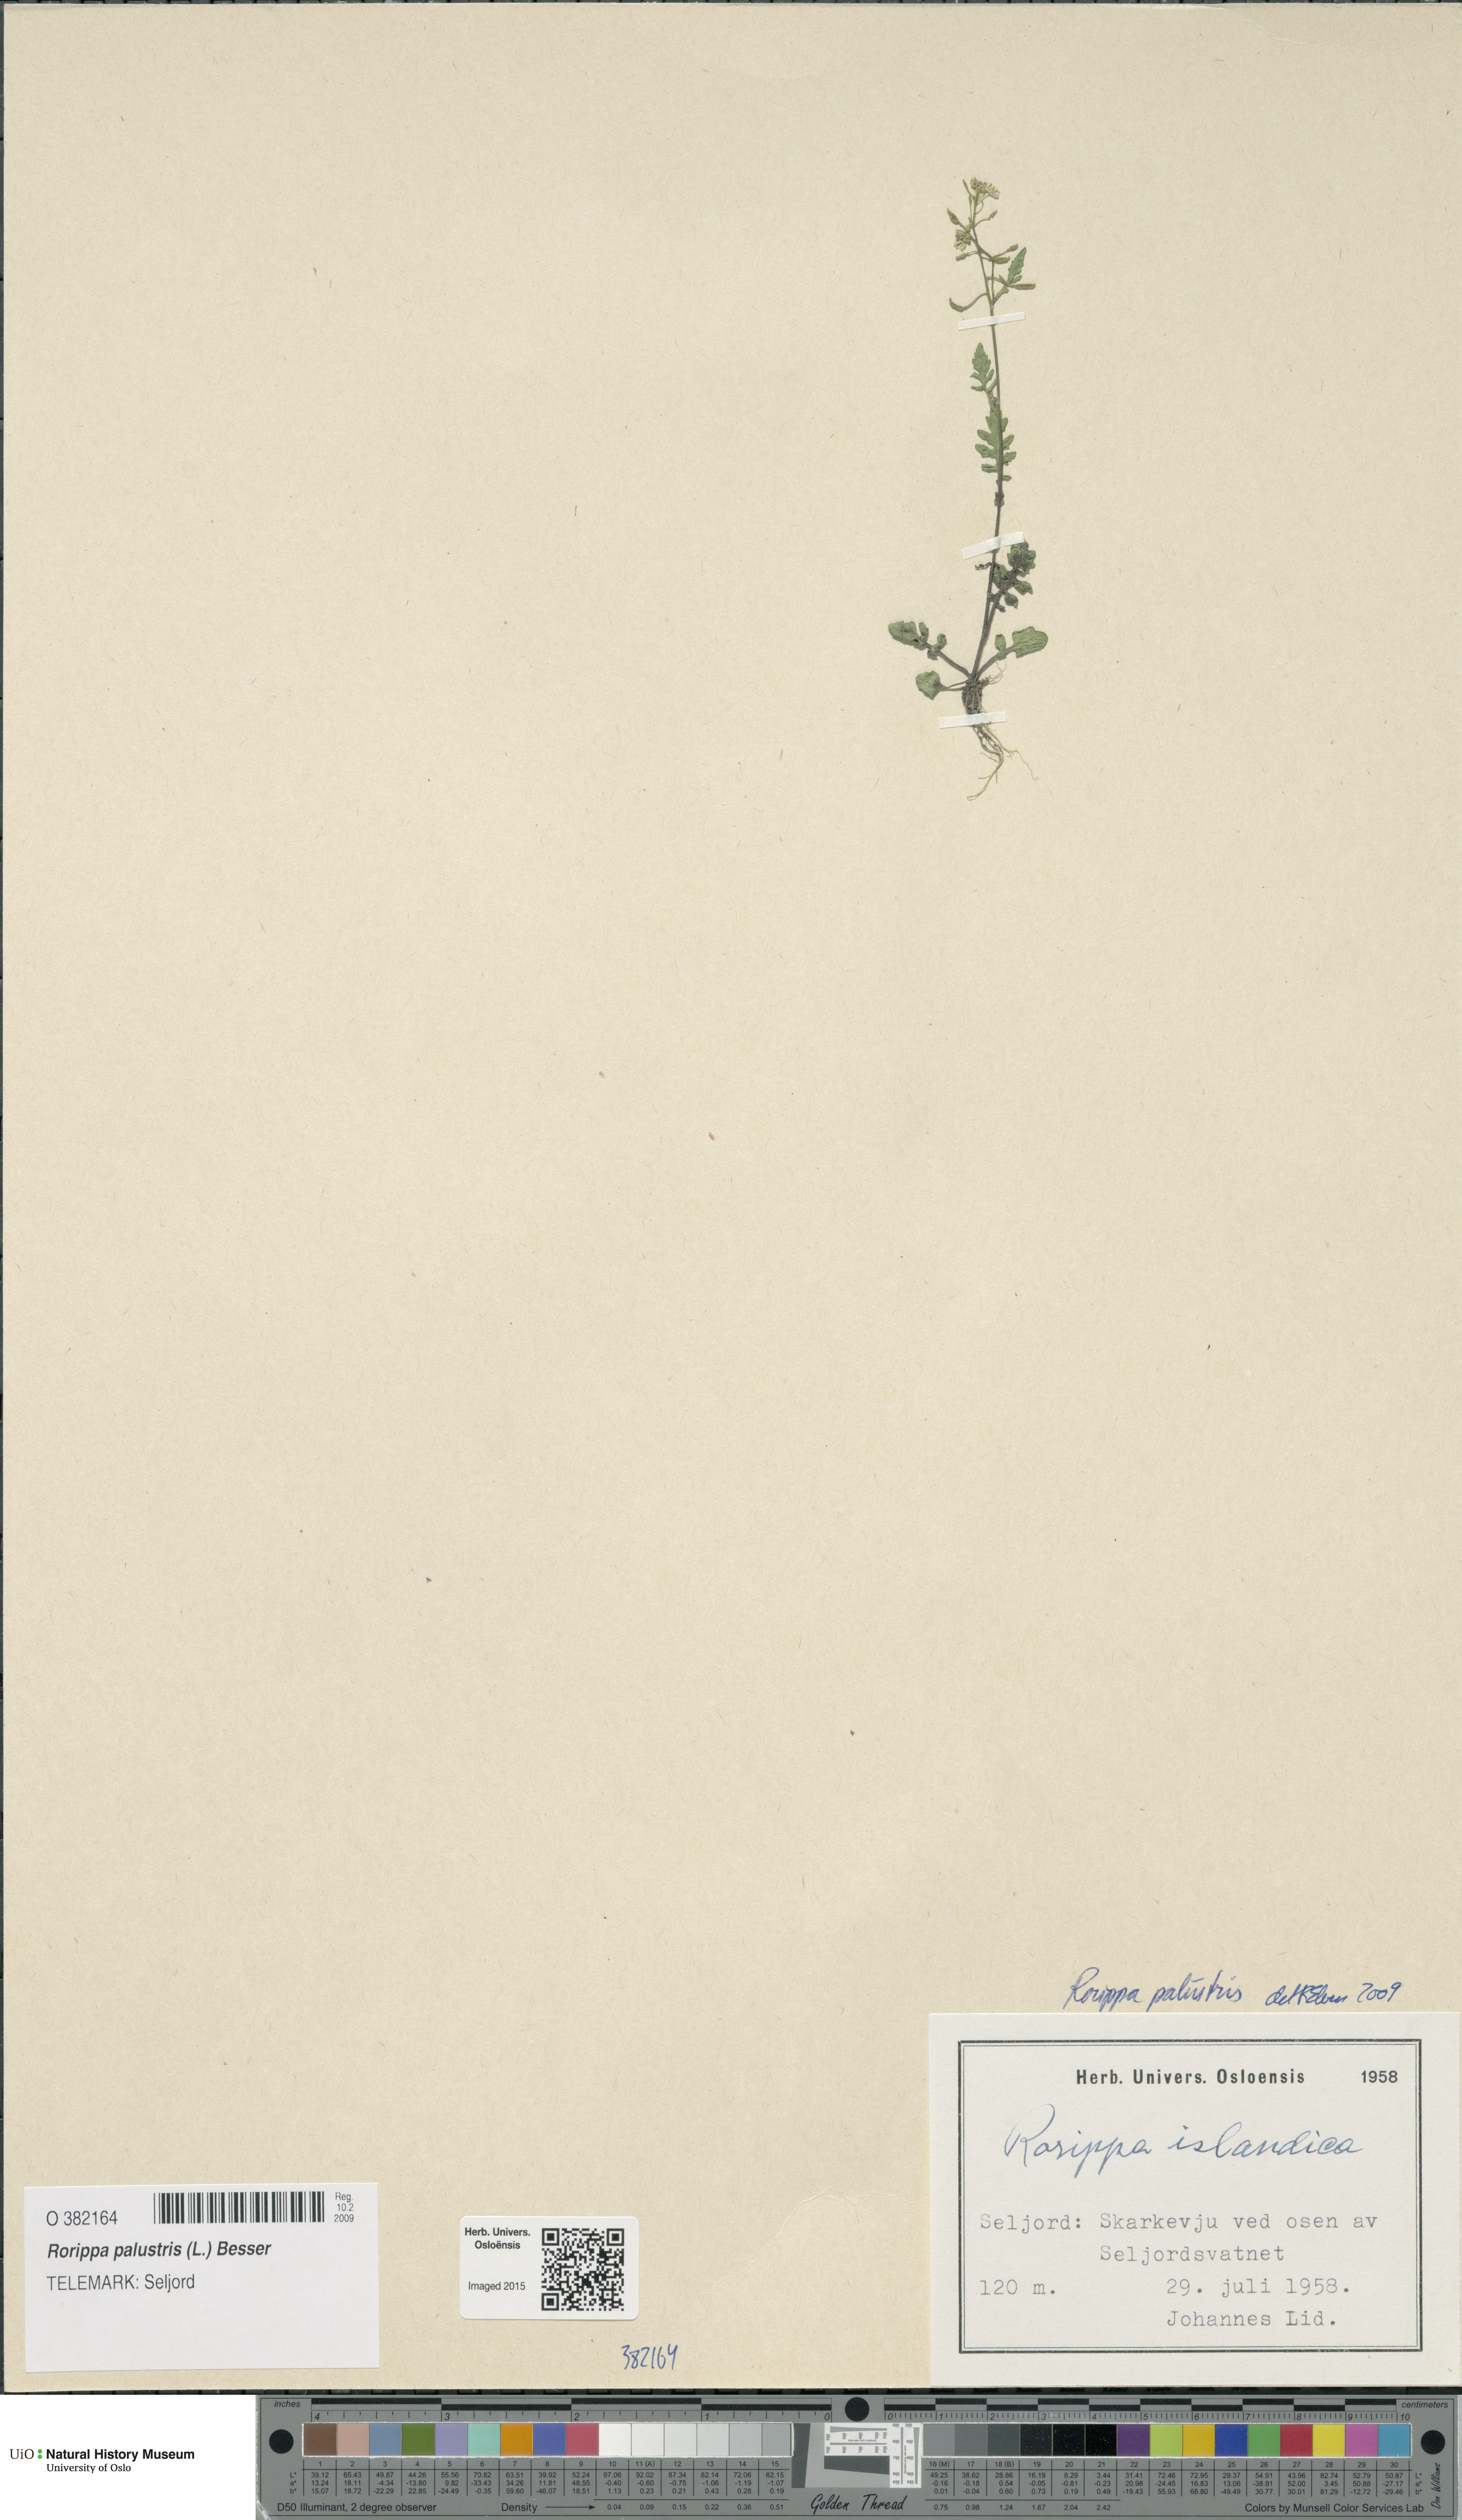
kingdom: Plantae
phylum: Tracheophyta
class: Magnoliopsida
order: Brassicales
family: Brassicaceae
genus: Rorippa
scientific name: Rorippa palustris
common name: Marsh yellow-cress
